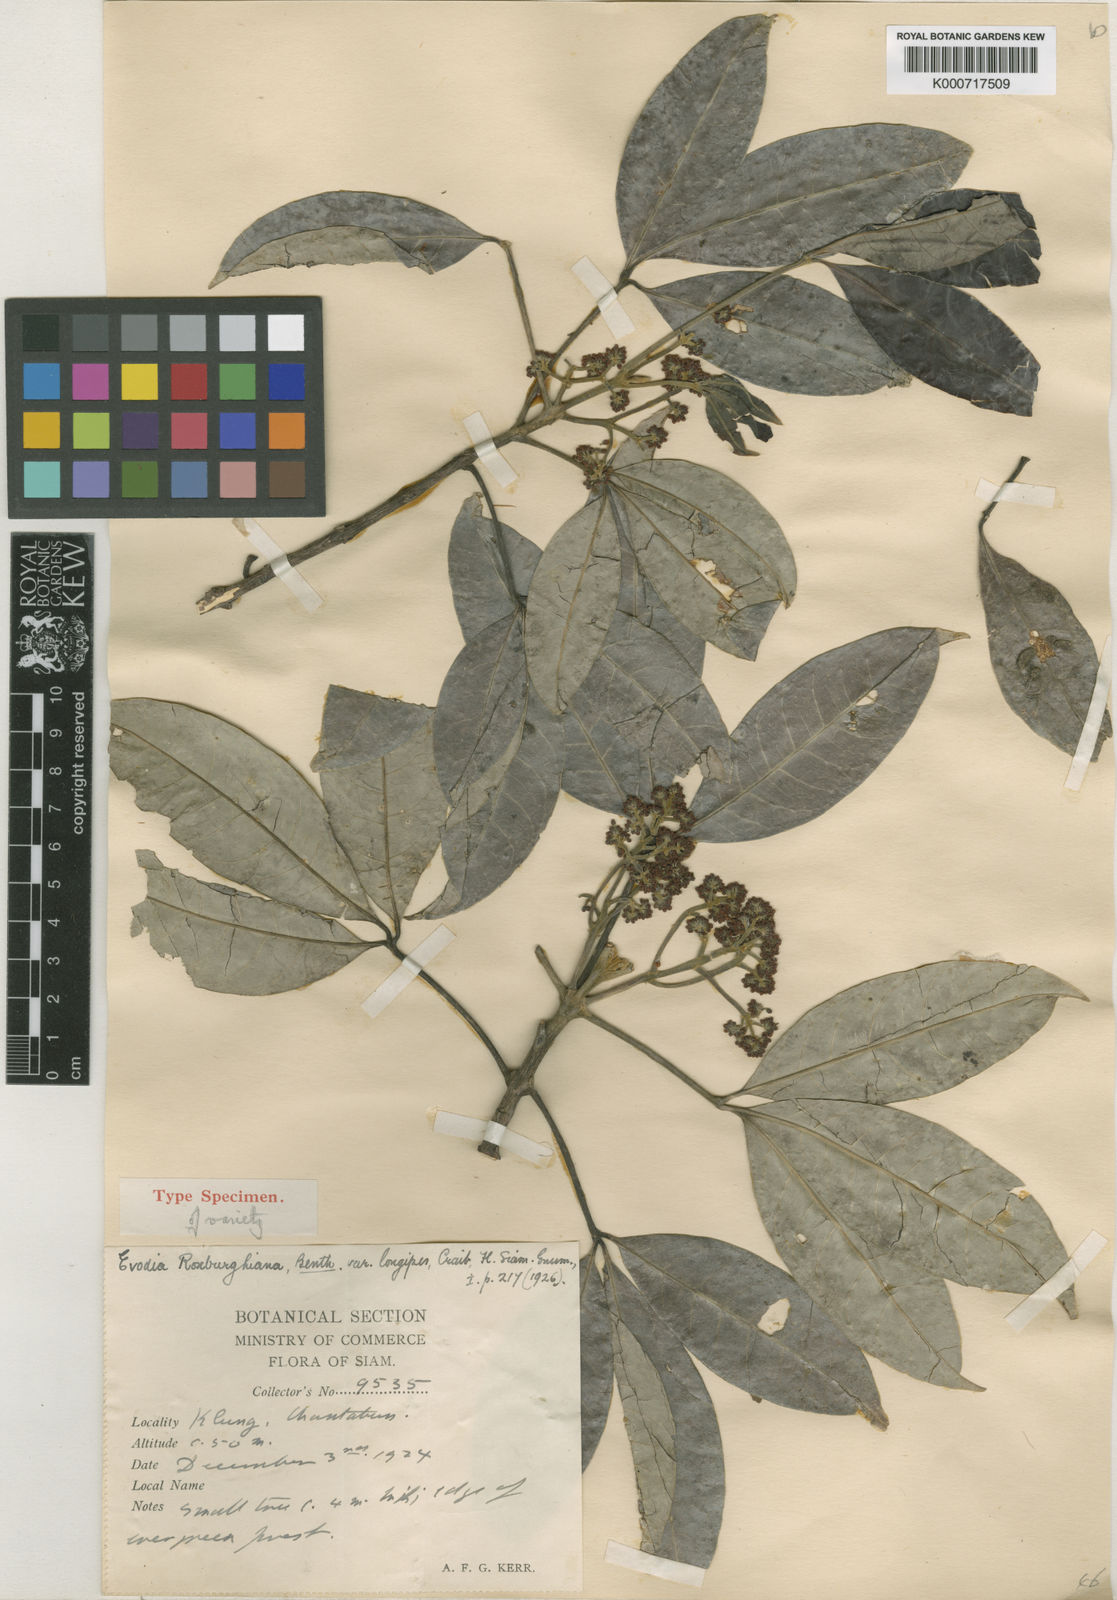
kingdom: Plantae
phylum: Tracheophyta
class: Magnoliopsida
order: Sapindales
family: Rutaceae
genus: Melicope
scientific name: Melicope lunu-ankenda
